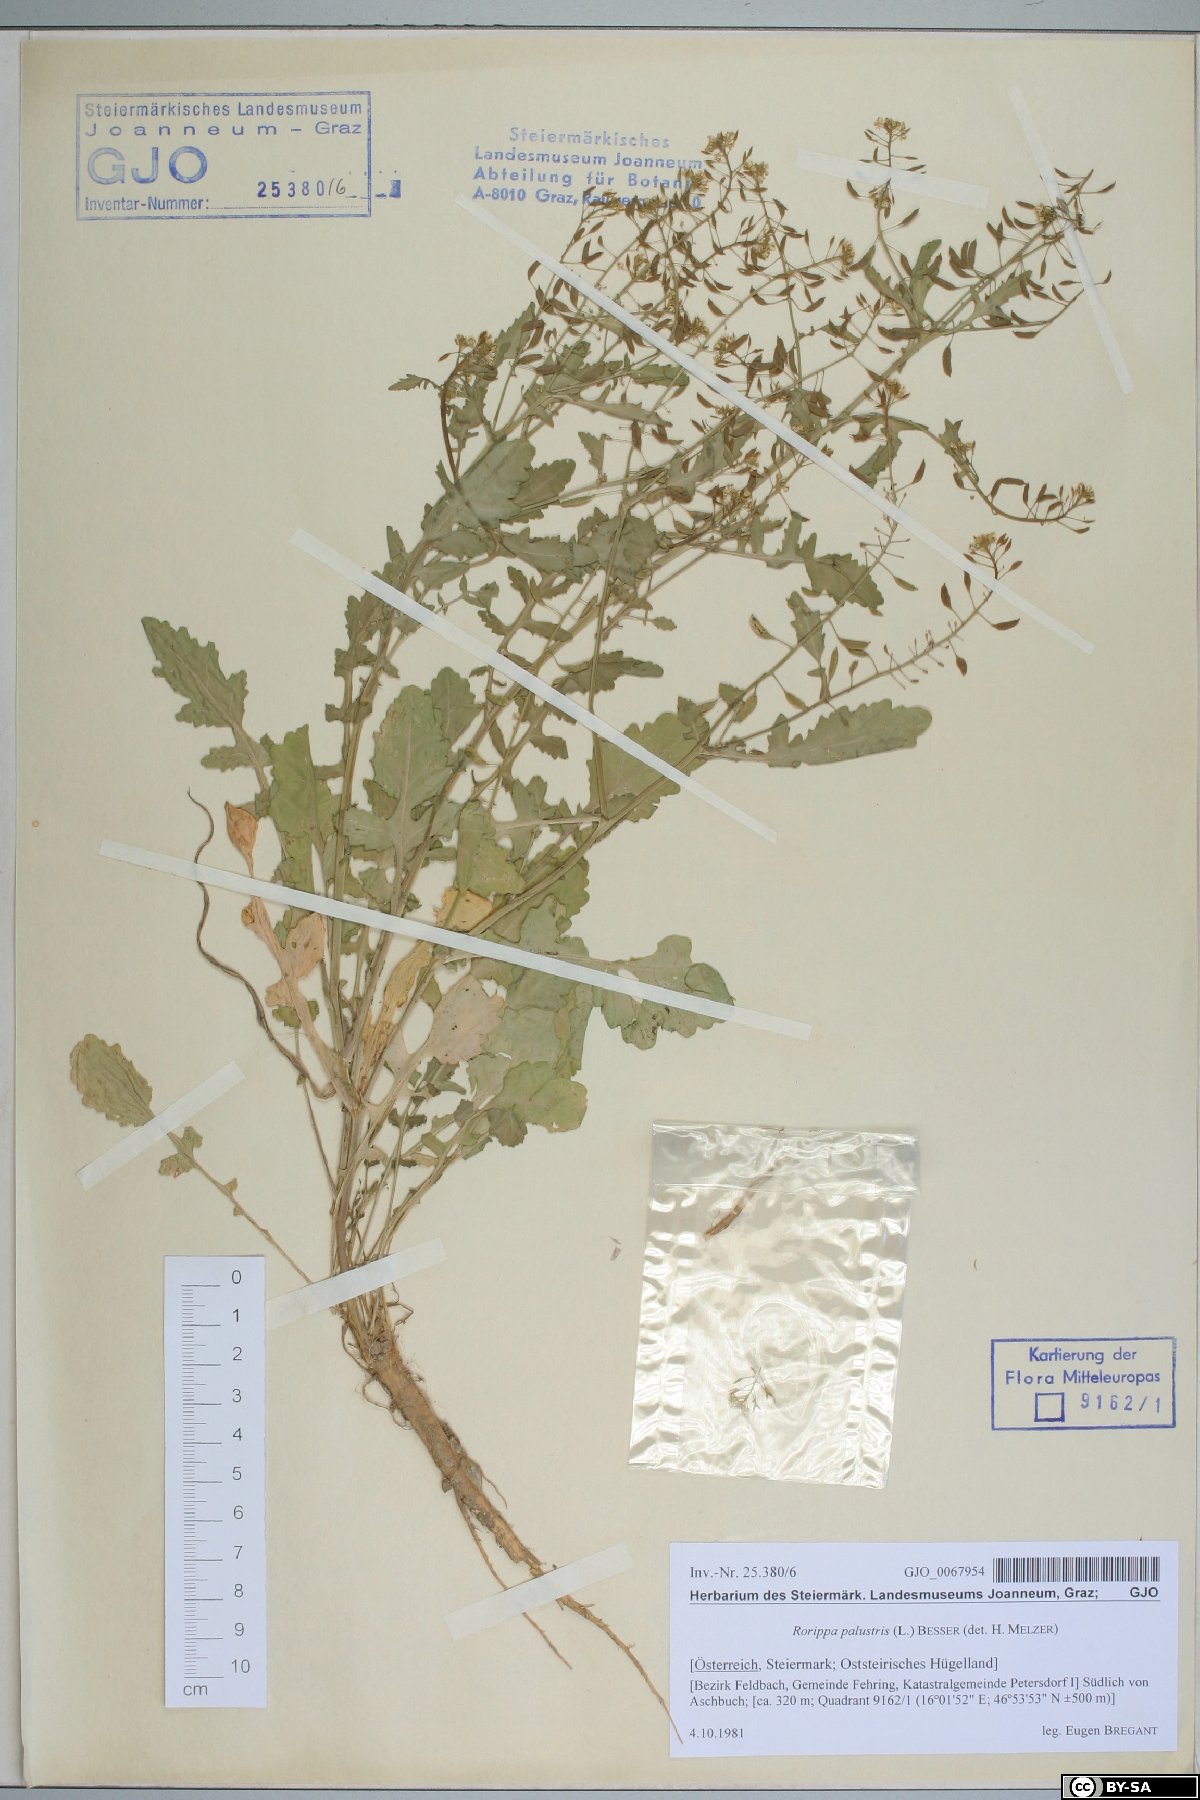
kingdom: Plantae
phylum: Tracheophyta
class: Magnoliopsida
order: Brassicales
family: Brassicaceae
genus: Rorippa
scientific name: Rorippa palustris
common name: Marsh yellow-cress
